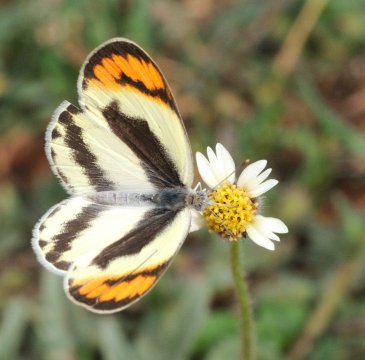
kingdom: Animalia
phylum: Arthropoda
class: Insecta
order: Lepidoptera
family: Pieridae
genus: Colotis
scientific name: Colotis euippe
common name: Round-winged Orange Tip
